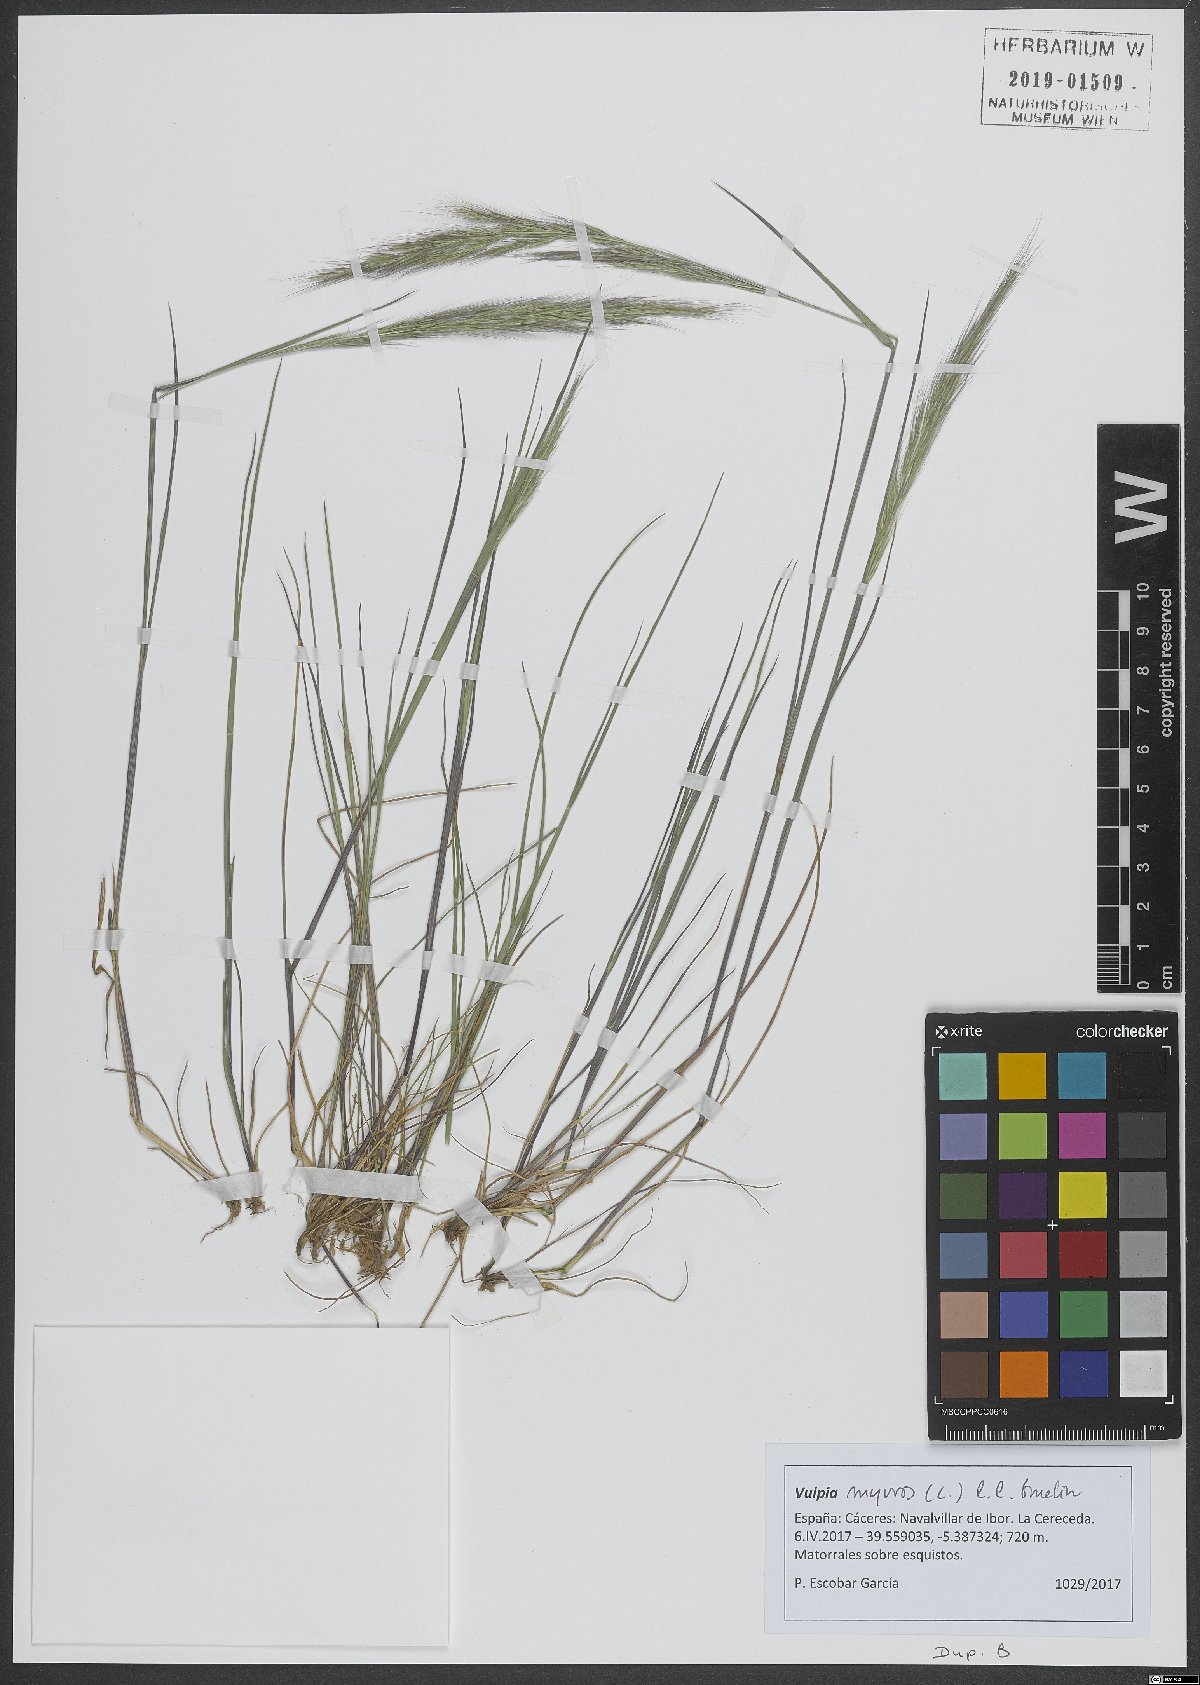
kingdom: Plantae
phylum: Tracheophyta
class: Liliopsida
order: Poales
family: Poaceae
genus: Festuca
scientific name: Festuca myuros
